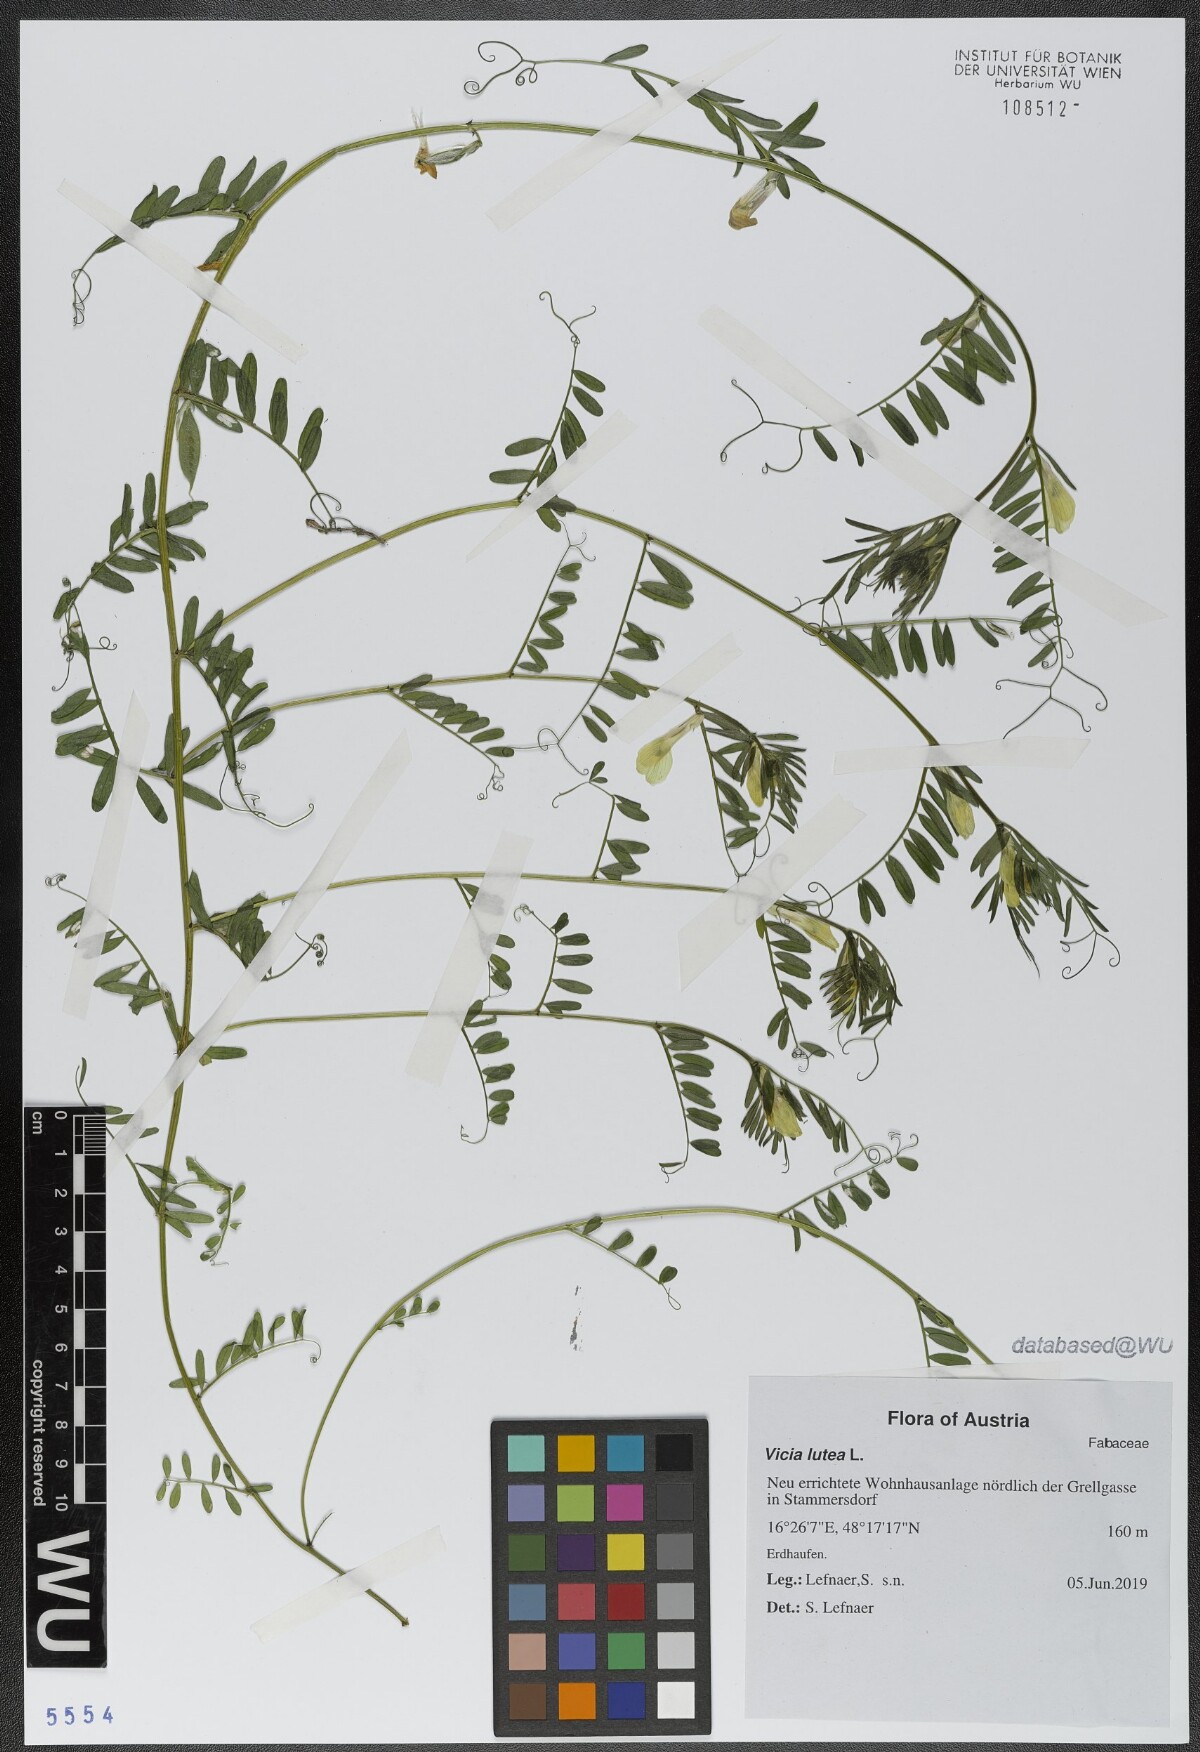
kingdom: Plantae
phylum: Tracheophyta
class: Magnoliopsida
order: Fabales
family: Fabaceae
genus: Vicia
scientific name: Vicia lutea
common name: Smooth yellow vetch
